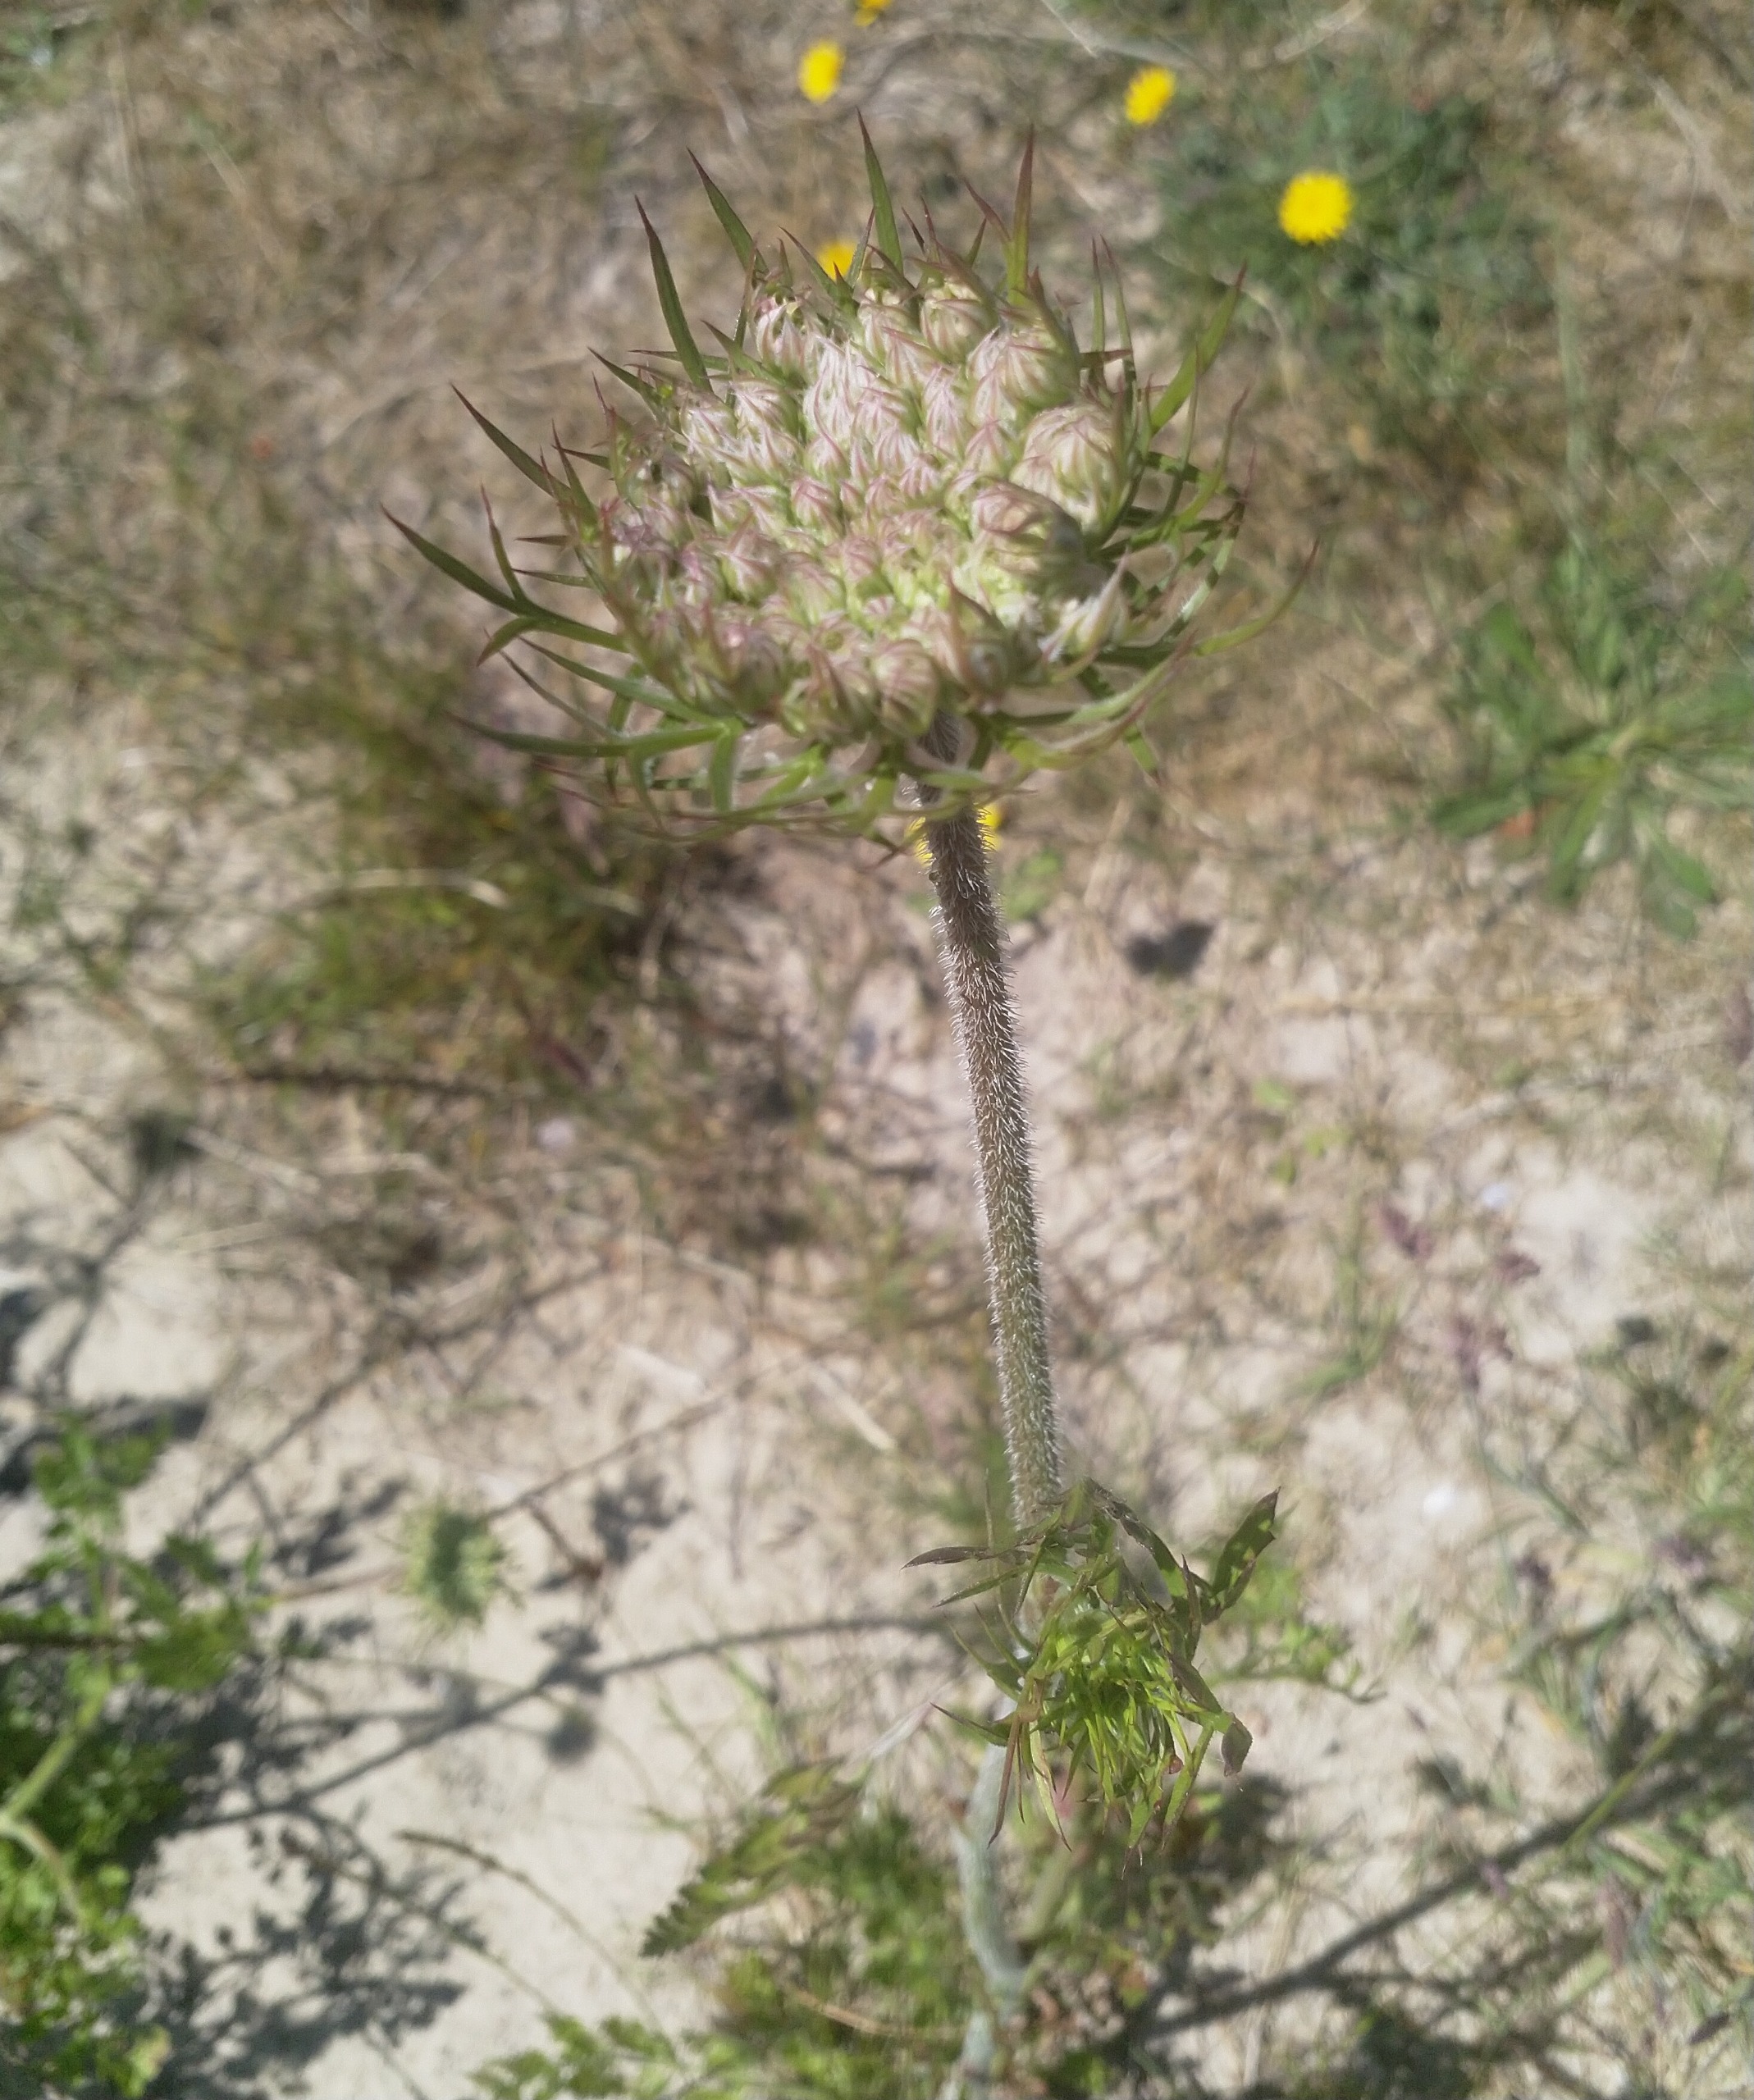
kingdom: Plantae
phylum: Tracheophyta
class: Magnoliopsida
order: Apiales
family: Apiaceae
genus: Daucus
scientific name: Daucus carota
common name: Gulerod
